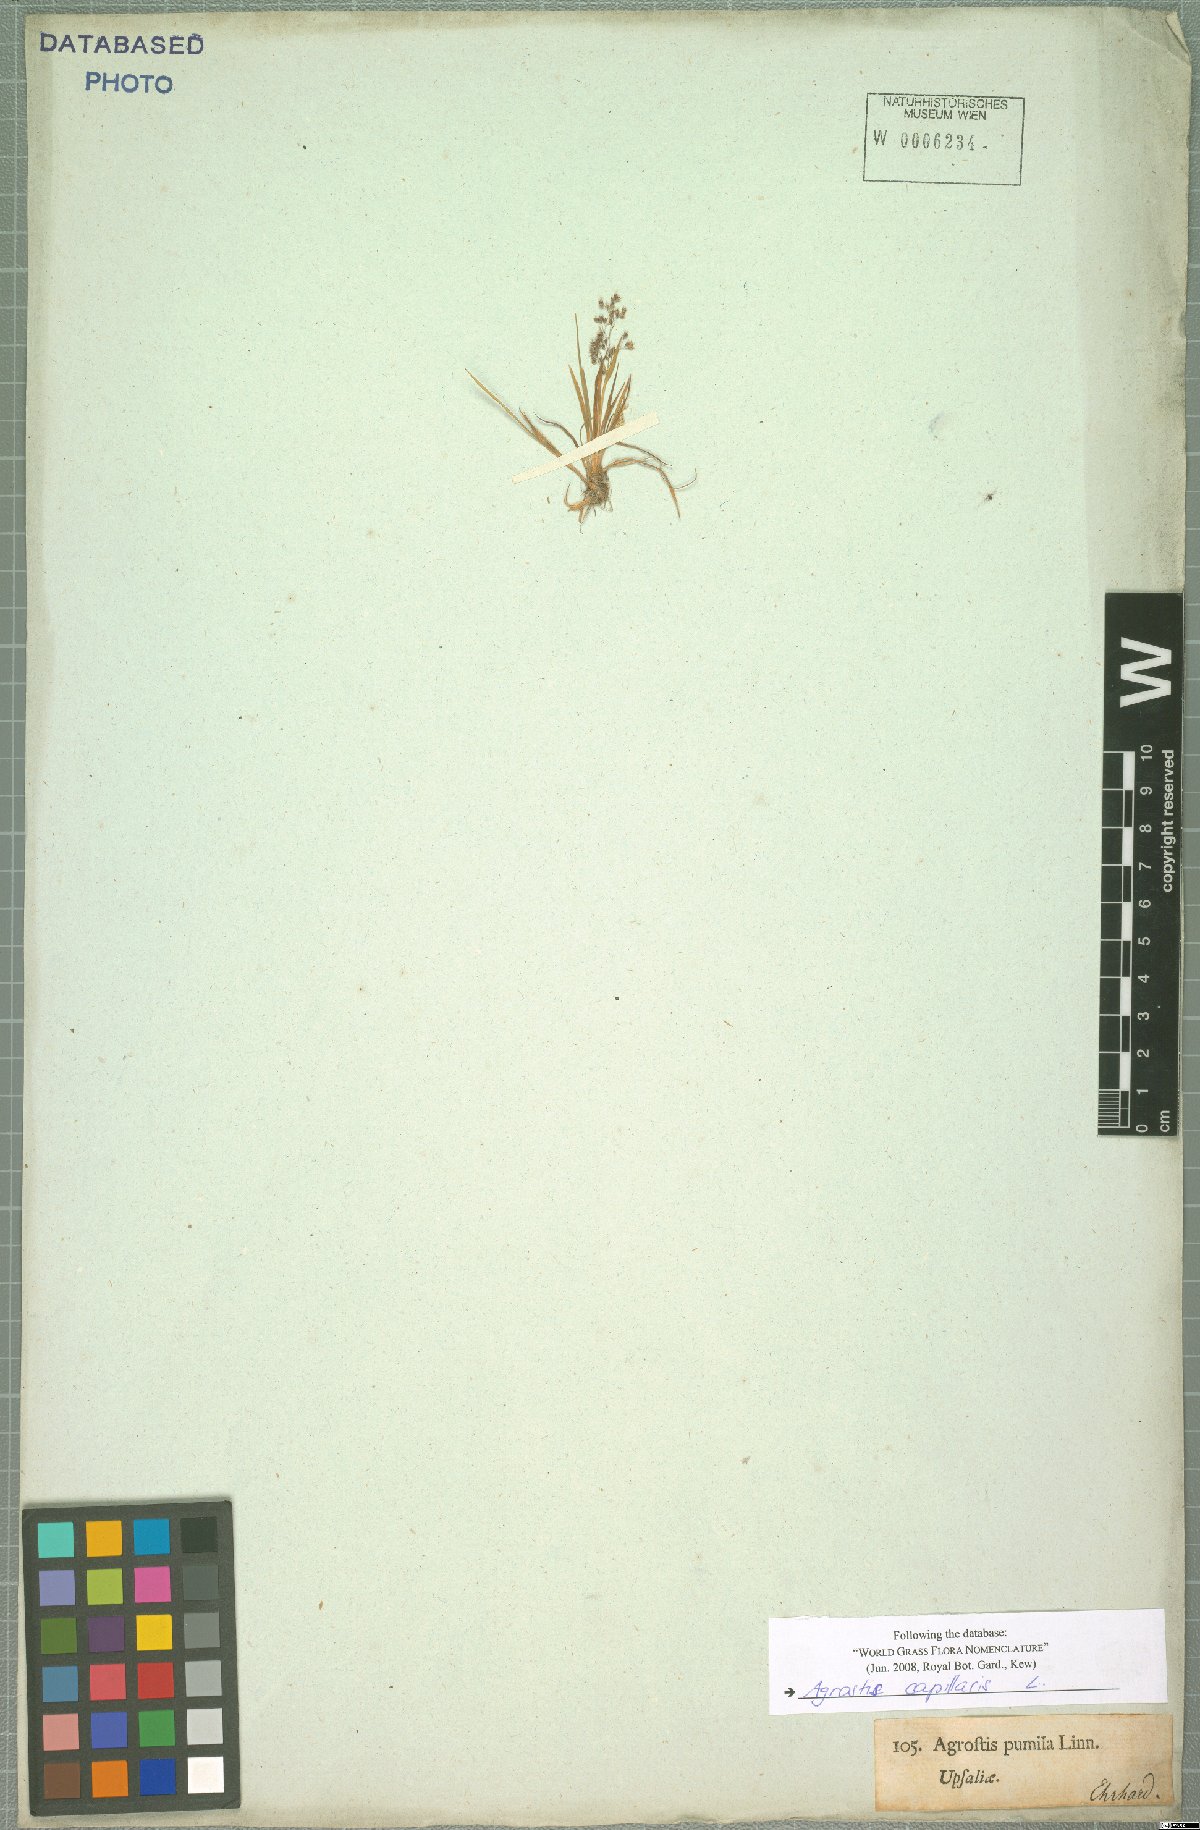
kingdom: Plantae
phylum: Tracheophyta
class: Liliopsida
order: Poales
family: Poaceae
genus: Agrostis
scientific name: Agrostis capillaris
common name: Colonial bentgrass
